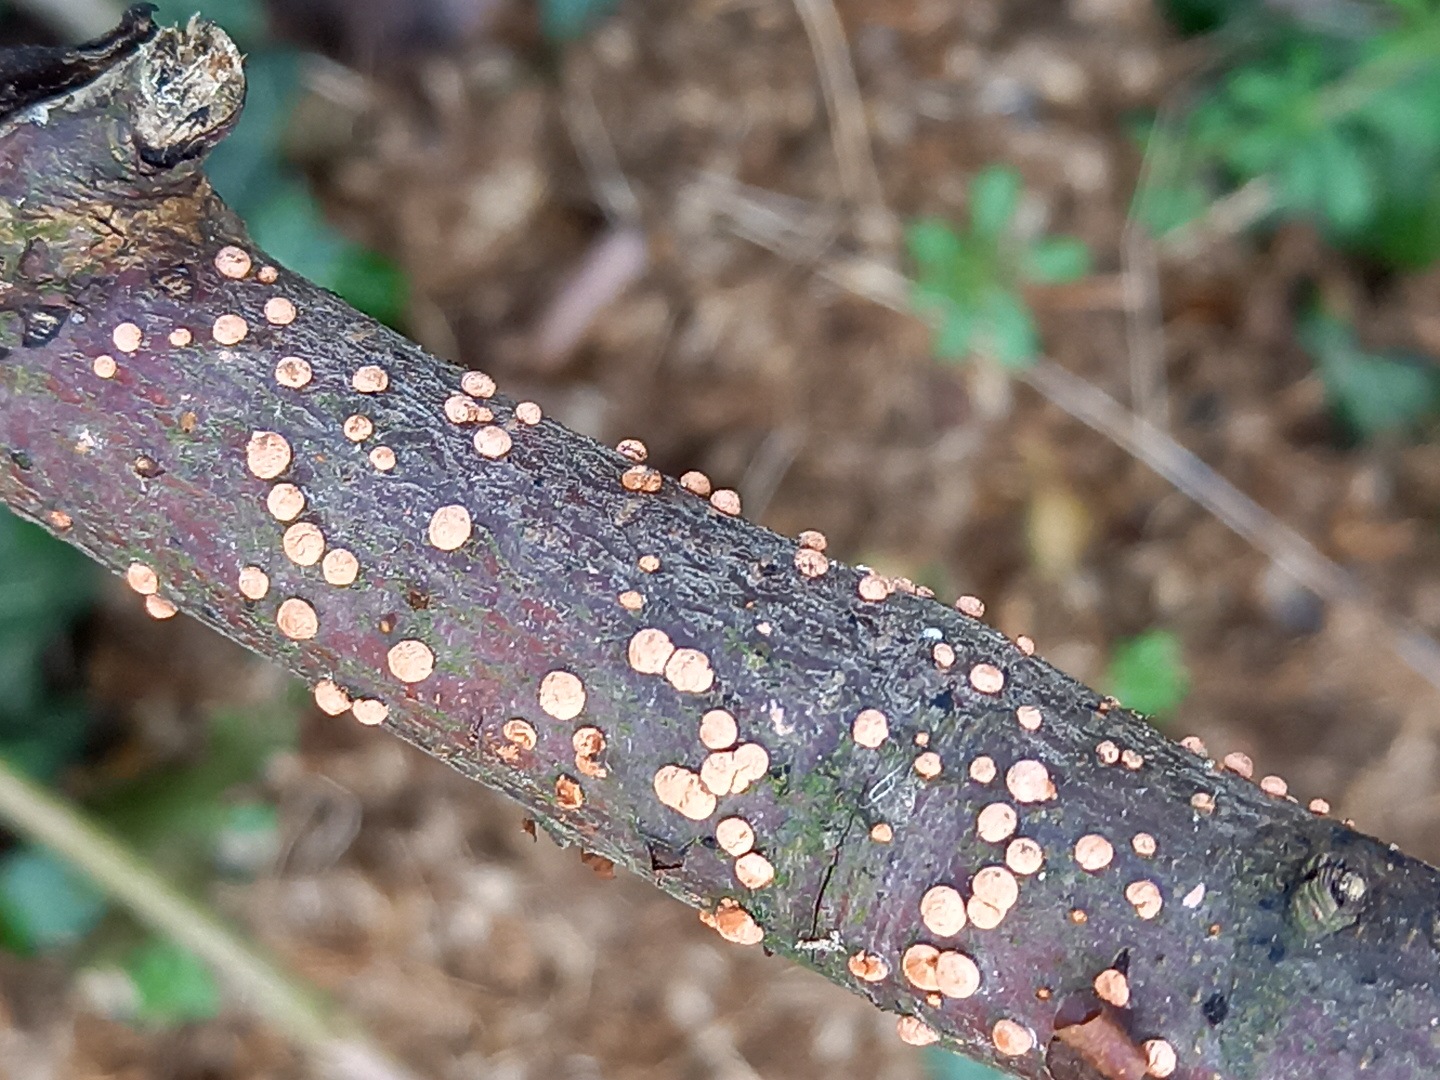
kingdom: Fungi
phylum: Ascomycota
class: Sordariomycetes
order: Hypocreales
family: Nectriaceae
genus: Nectria
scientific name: Nectria cinnabarina
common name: almindelig cinnobersvamp
